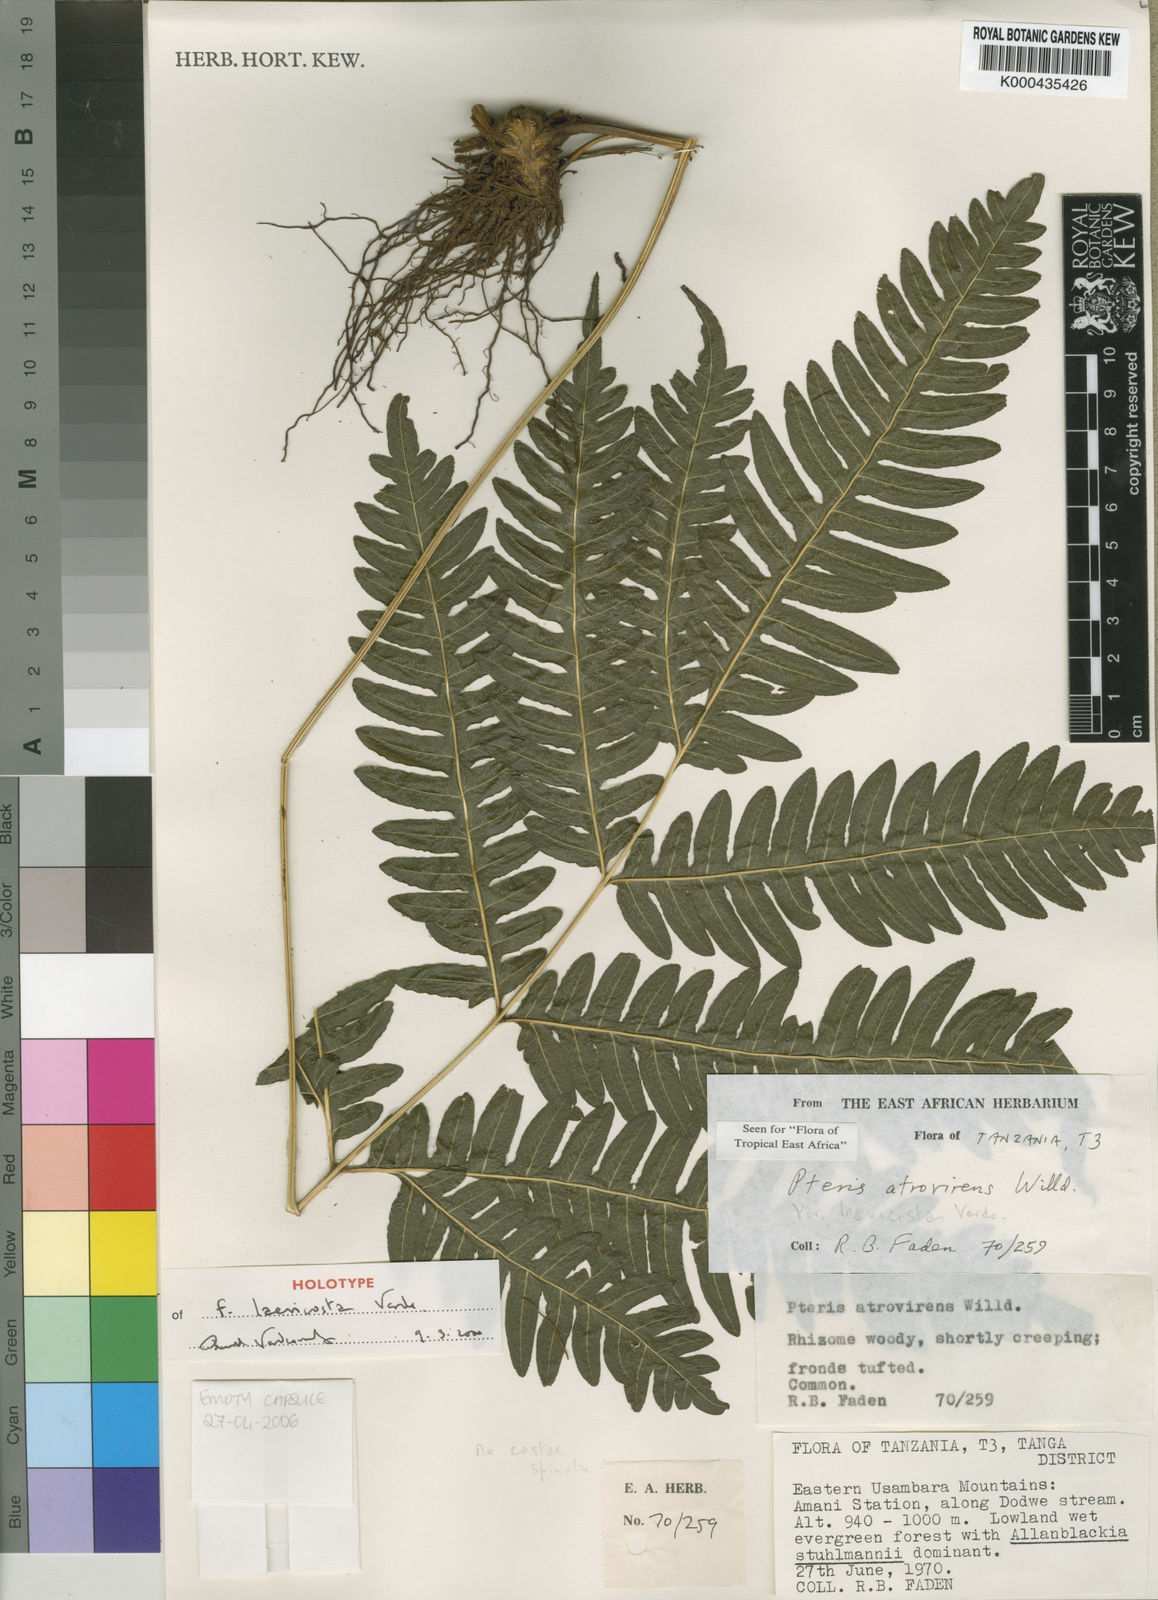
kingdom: Plantae
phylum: Tracheophyta
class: Polypodiopsida
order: Polypodiales
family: Pteridaceae
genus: Pteris
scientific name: Pteris atrovirens
